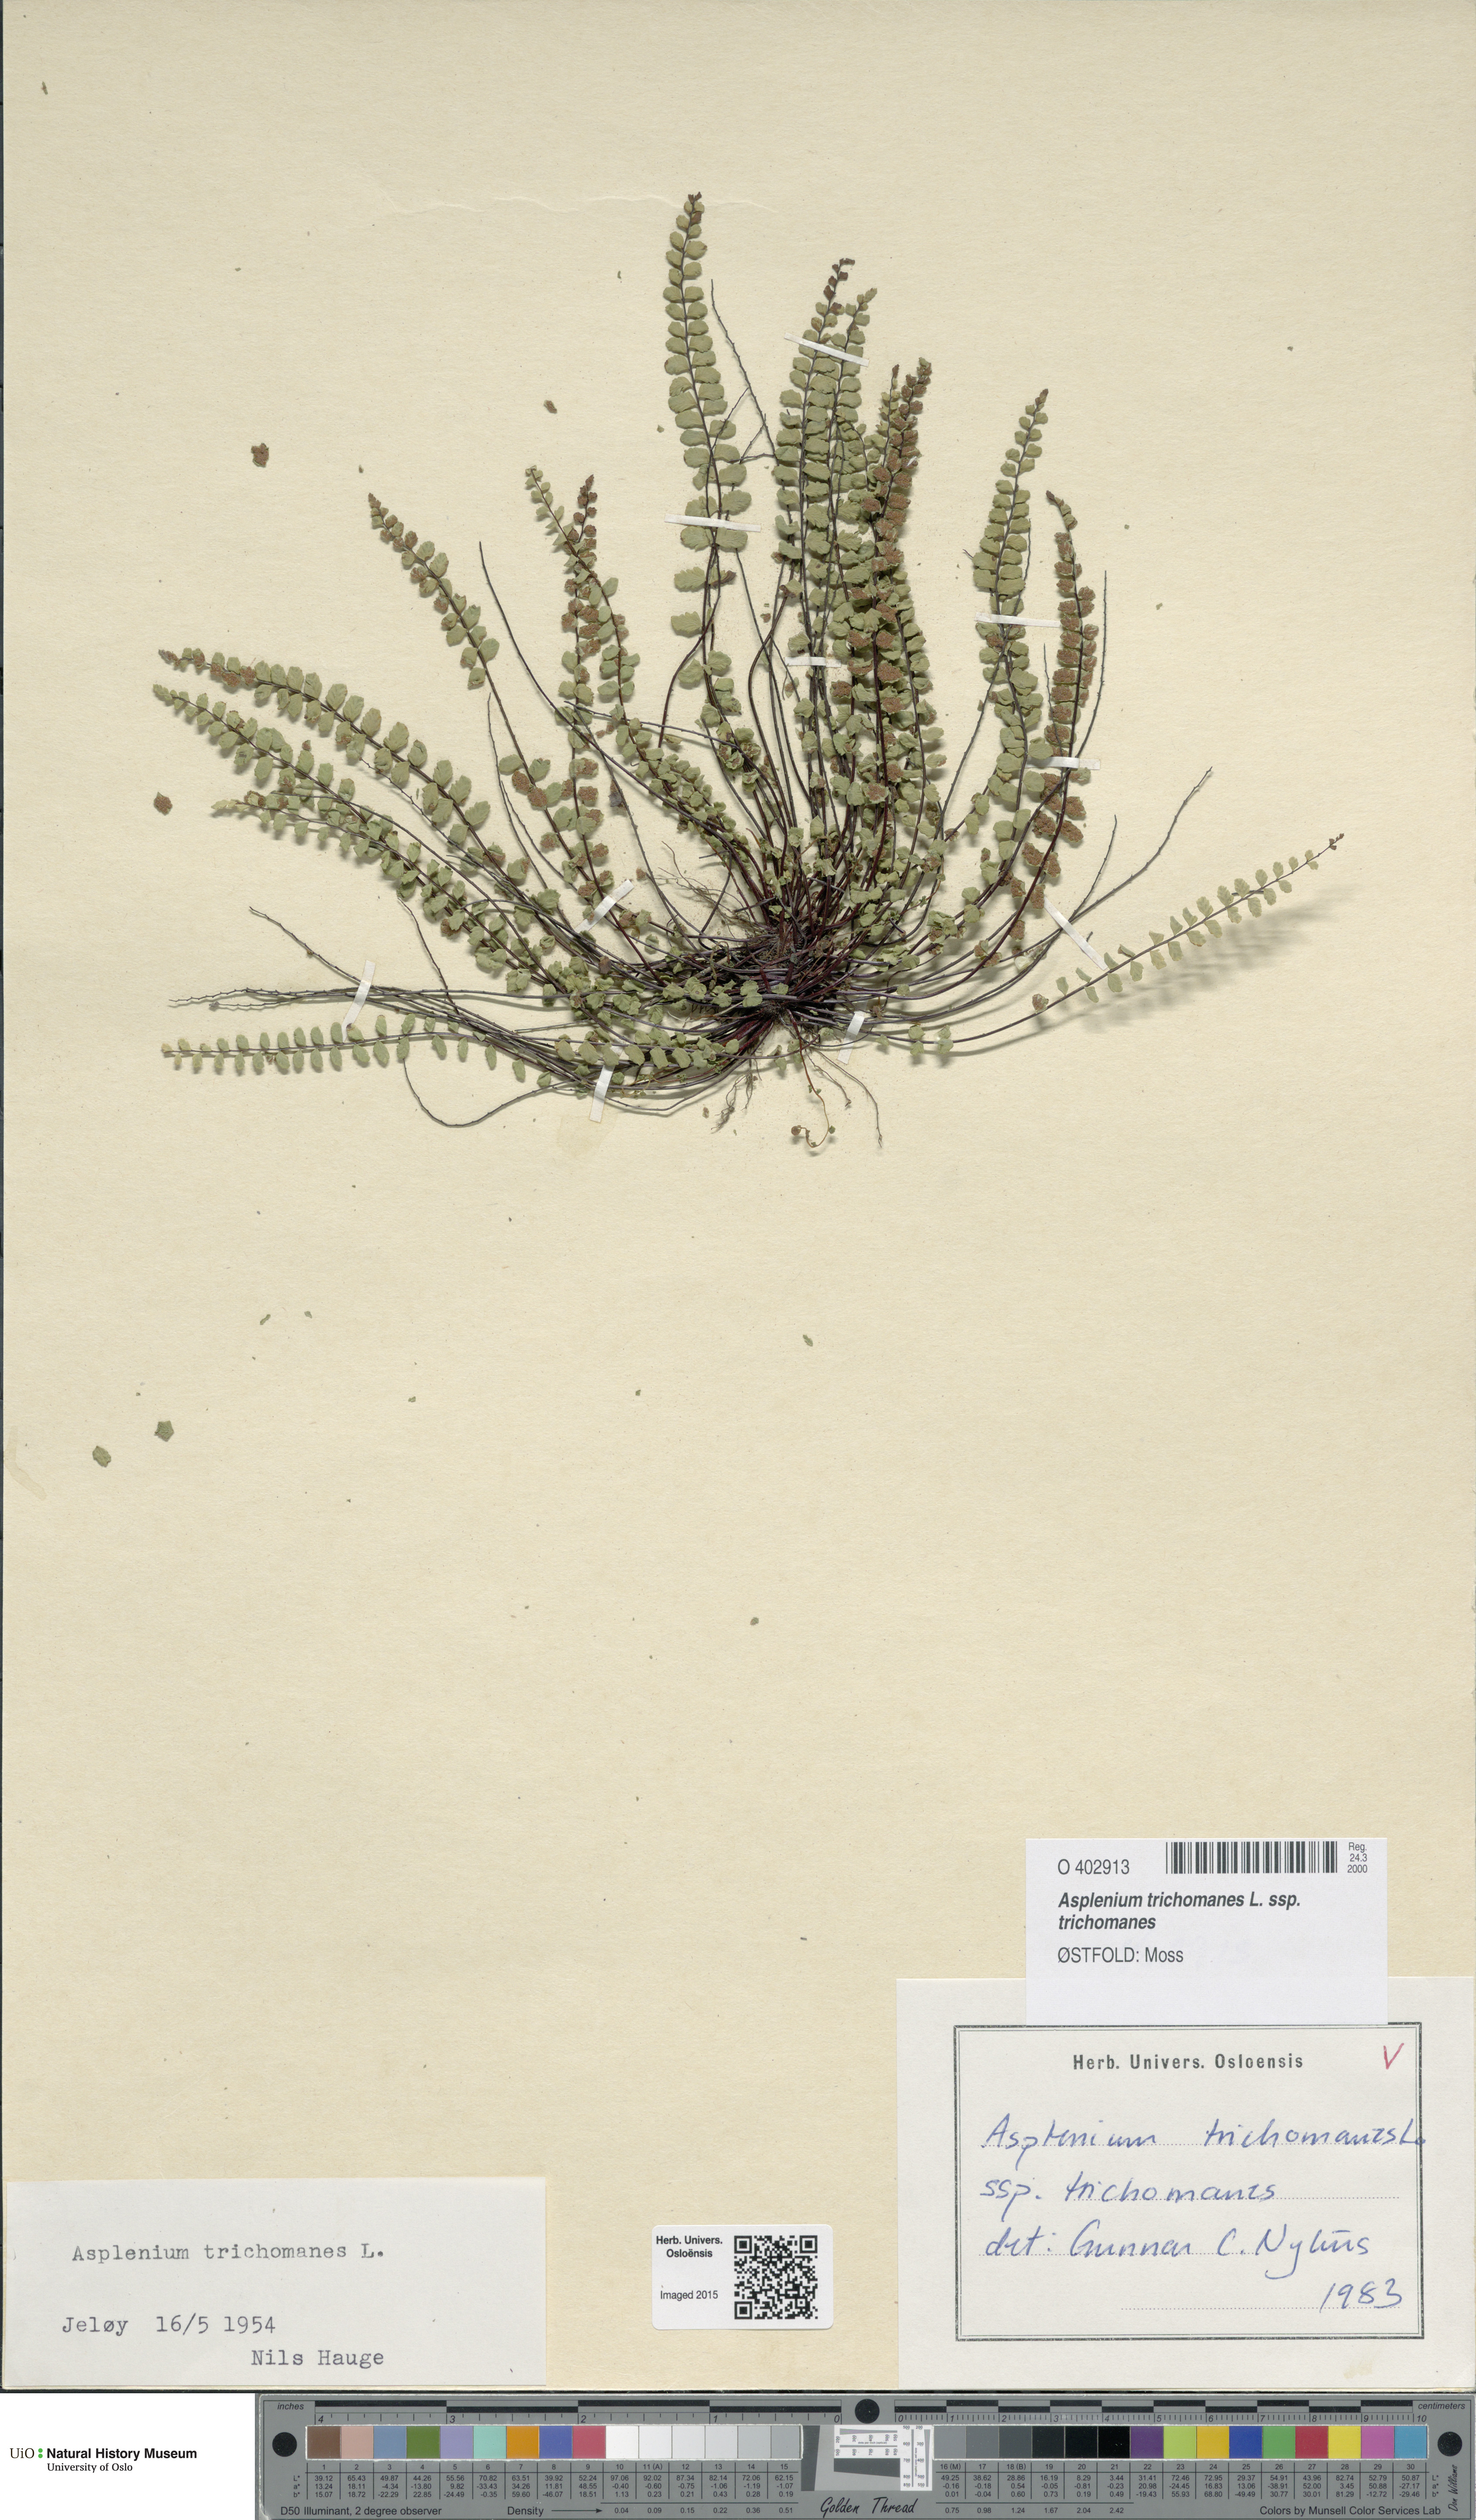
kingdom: Plantae
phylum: Tracheophyta
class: Polypodiopsida
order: Polypodiales
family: Aspleniaceae
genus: Asplenium
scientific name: Asplenium trichomanes
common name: Maidenhair spleenwort
